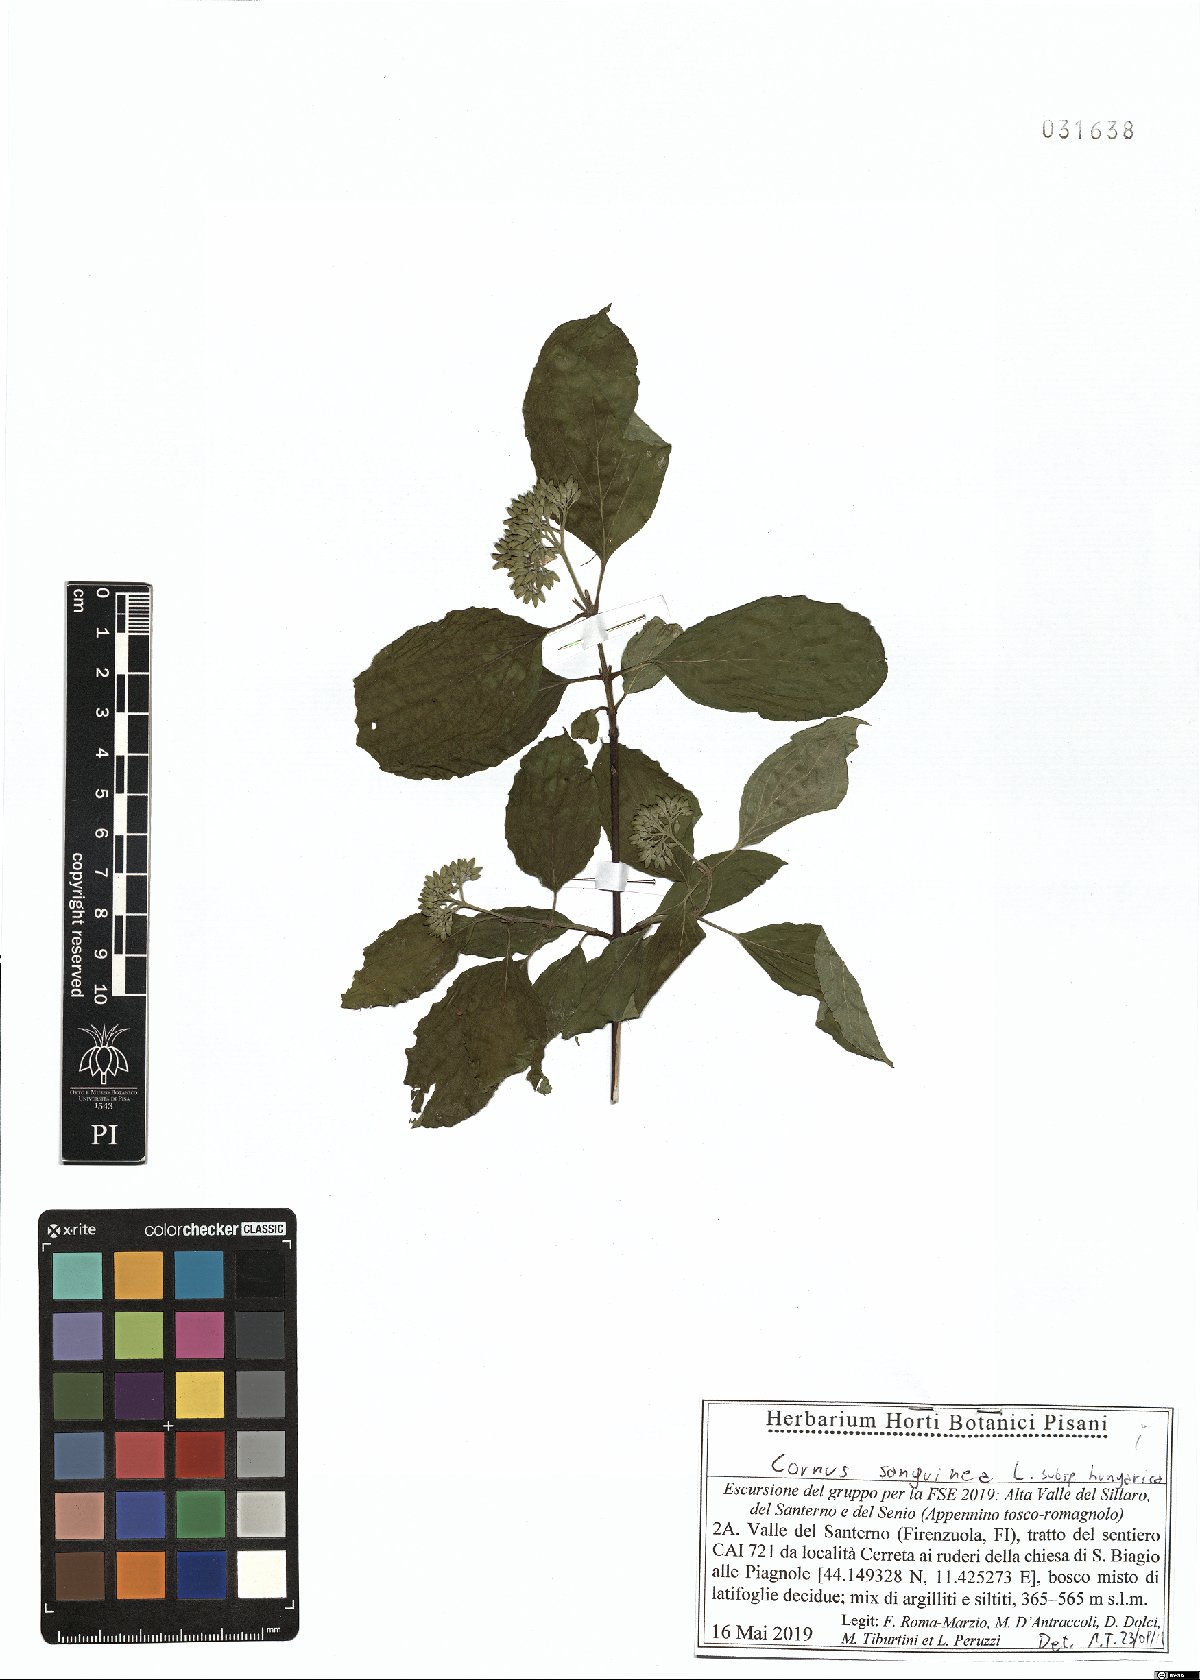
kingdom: Plantae
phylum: Tracheophyta
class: Magnoliopsida
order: Cornales
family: Cornaceae
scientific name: Cornaceae
